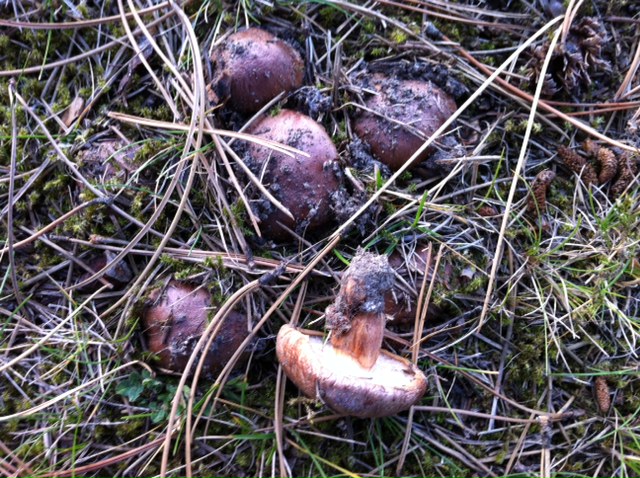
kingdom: Fungi
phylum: Basidiomycota
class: Agaricomycetes
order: Agaricales
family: Tricholomataceae
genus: Tricholoma
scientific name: Tricholoma fracticum
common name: hvidhalset ridderhat
